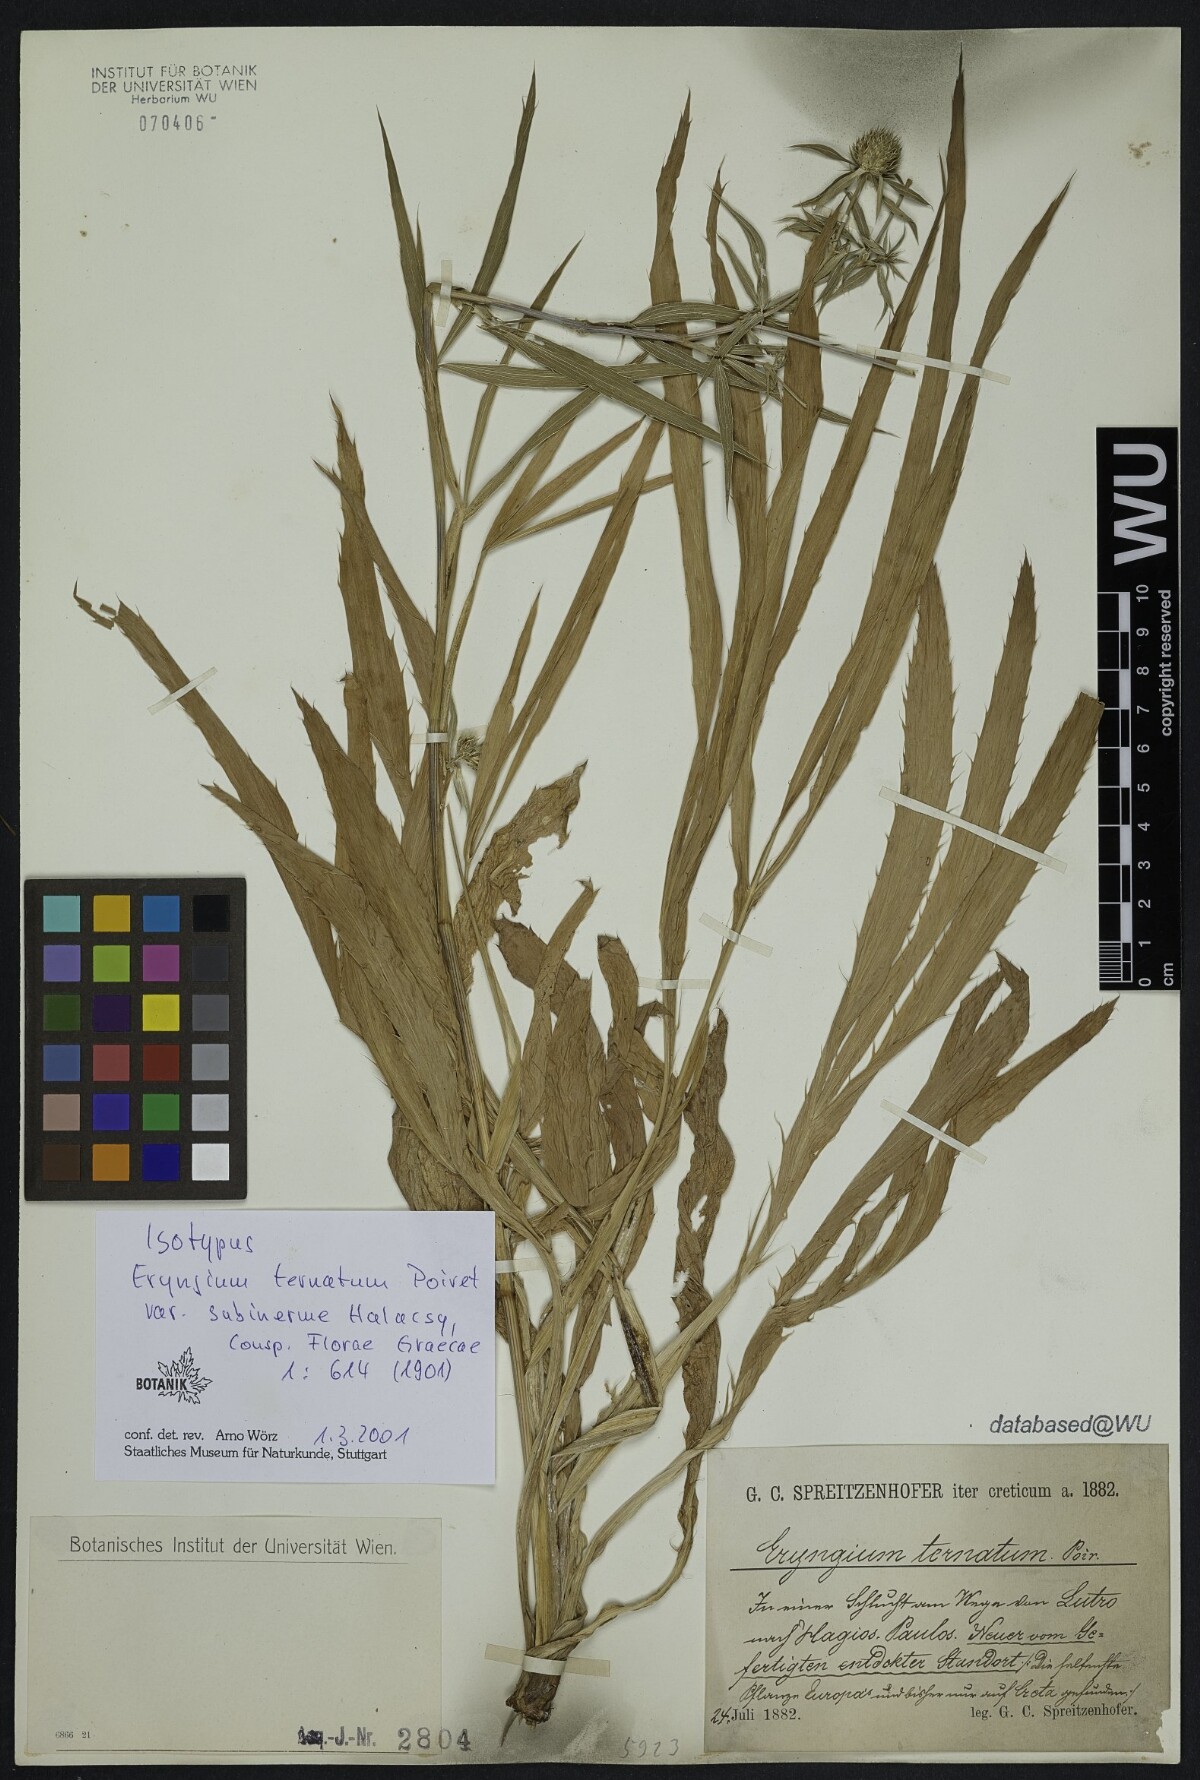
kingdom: Plantae
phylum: Tracheophyta
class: Magnoliopsida
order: Apiales
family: Apiaceae
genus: Eryngium
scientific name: Eryngium ternatum
